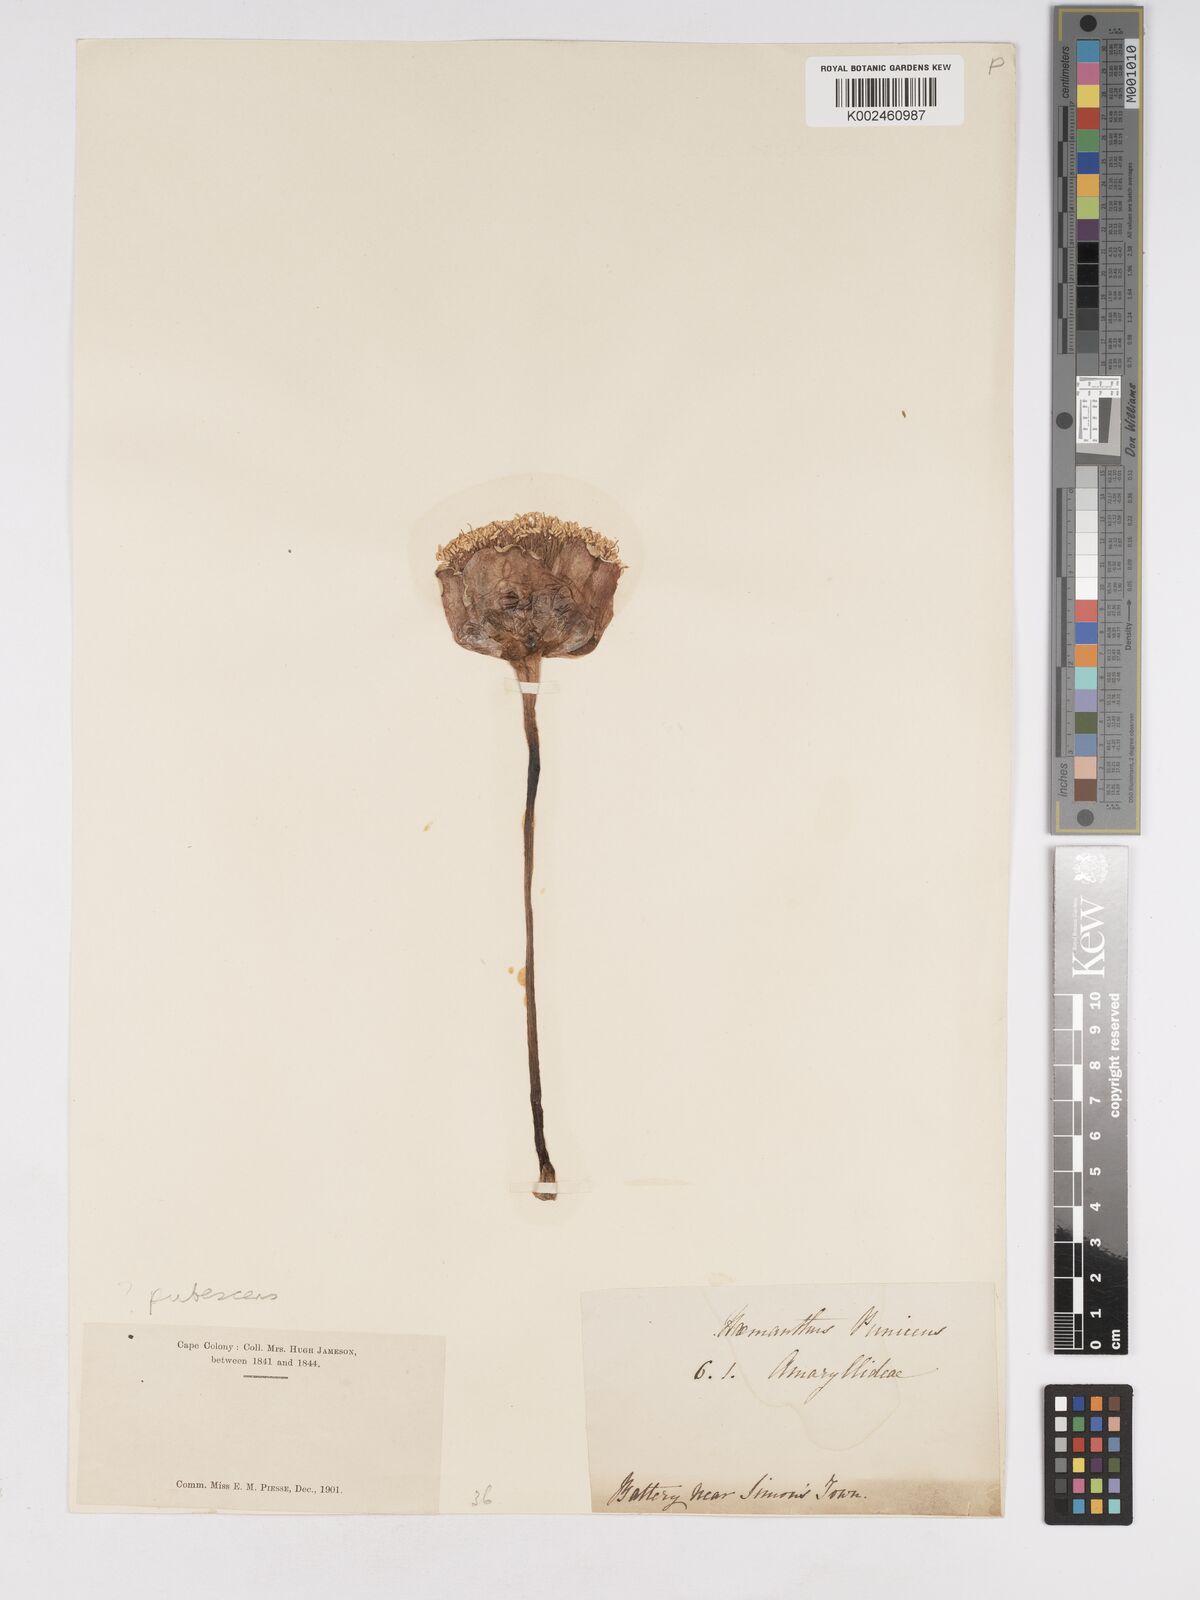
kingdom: Plantae
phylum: Tracheophyta
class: Liliopsida
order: Asparagales
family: Amaryllidaceae
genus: Haemanthus
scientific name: Haemanthus pubescens
